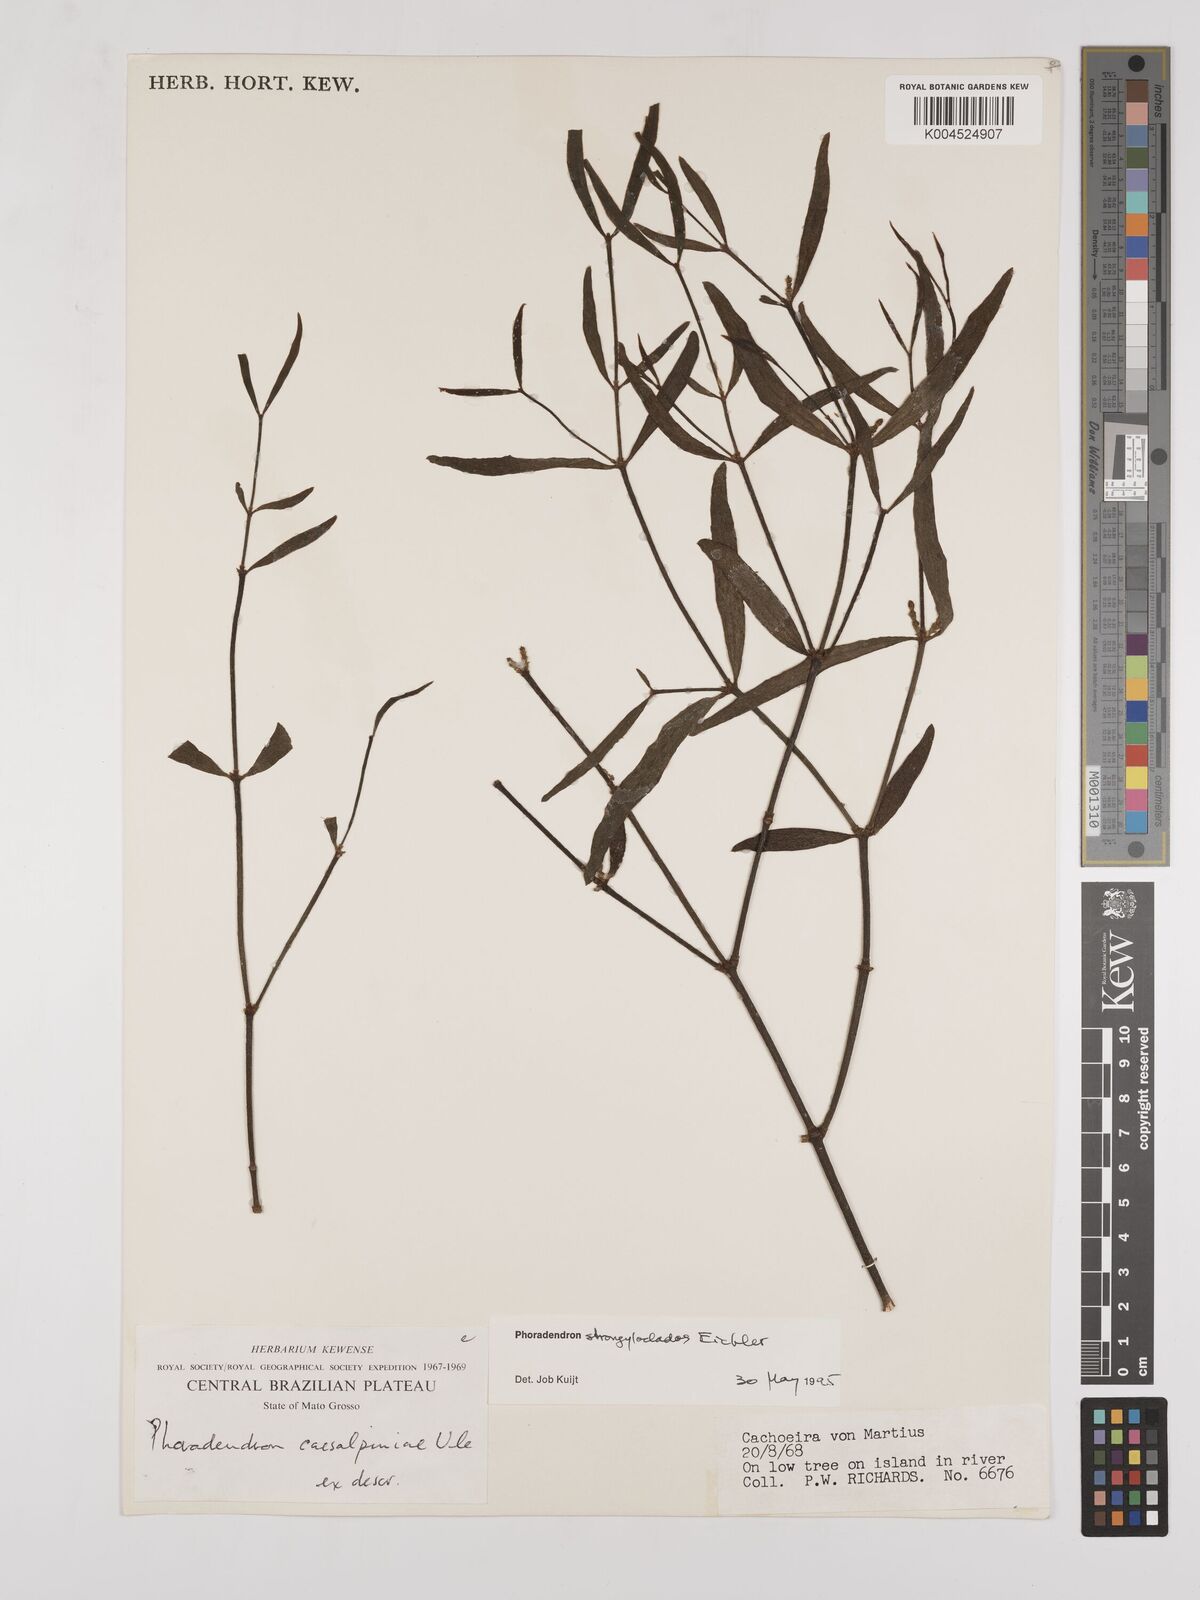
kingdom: Plantae
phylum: Tracheophyta
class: Magnoliopsida
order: Santalales
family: Viscaceae
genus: Phoradendron
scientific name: Phoradendron strongyloclados
